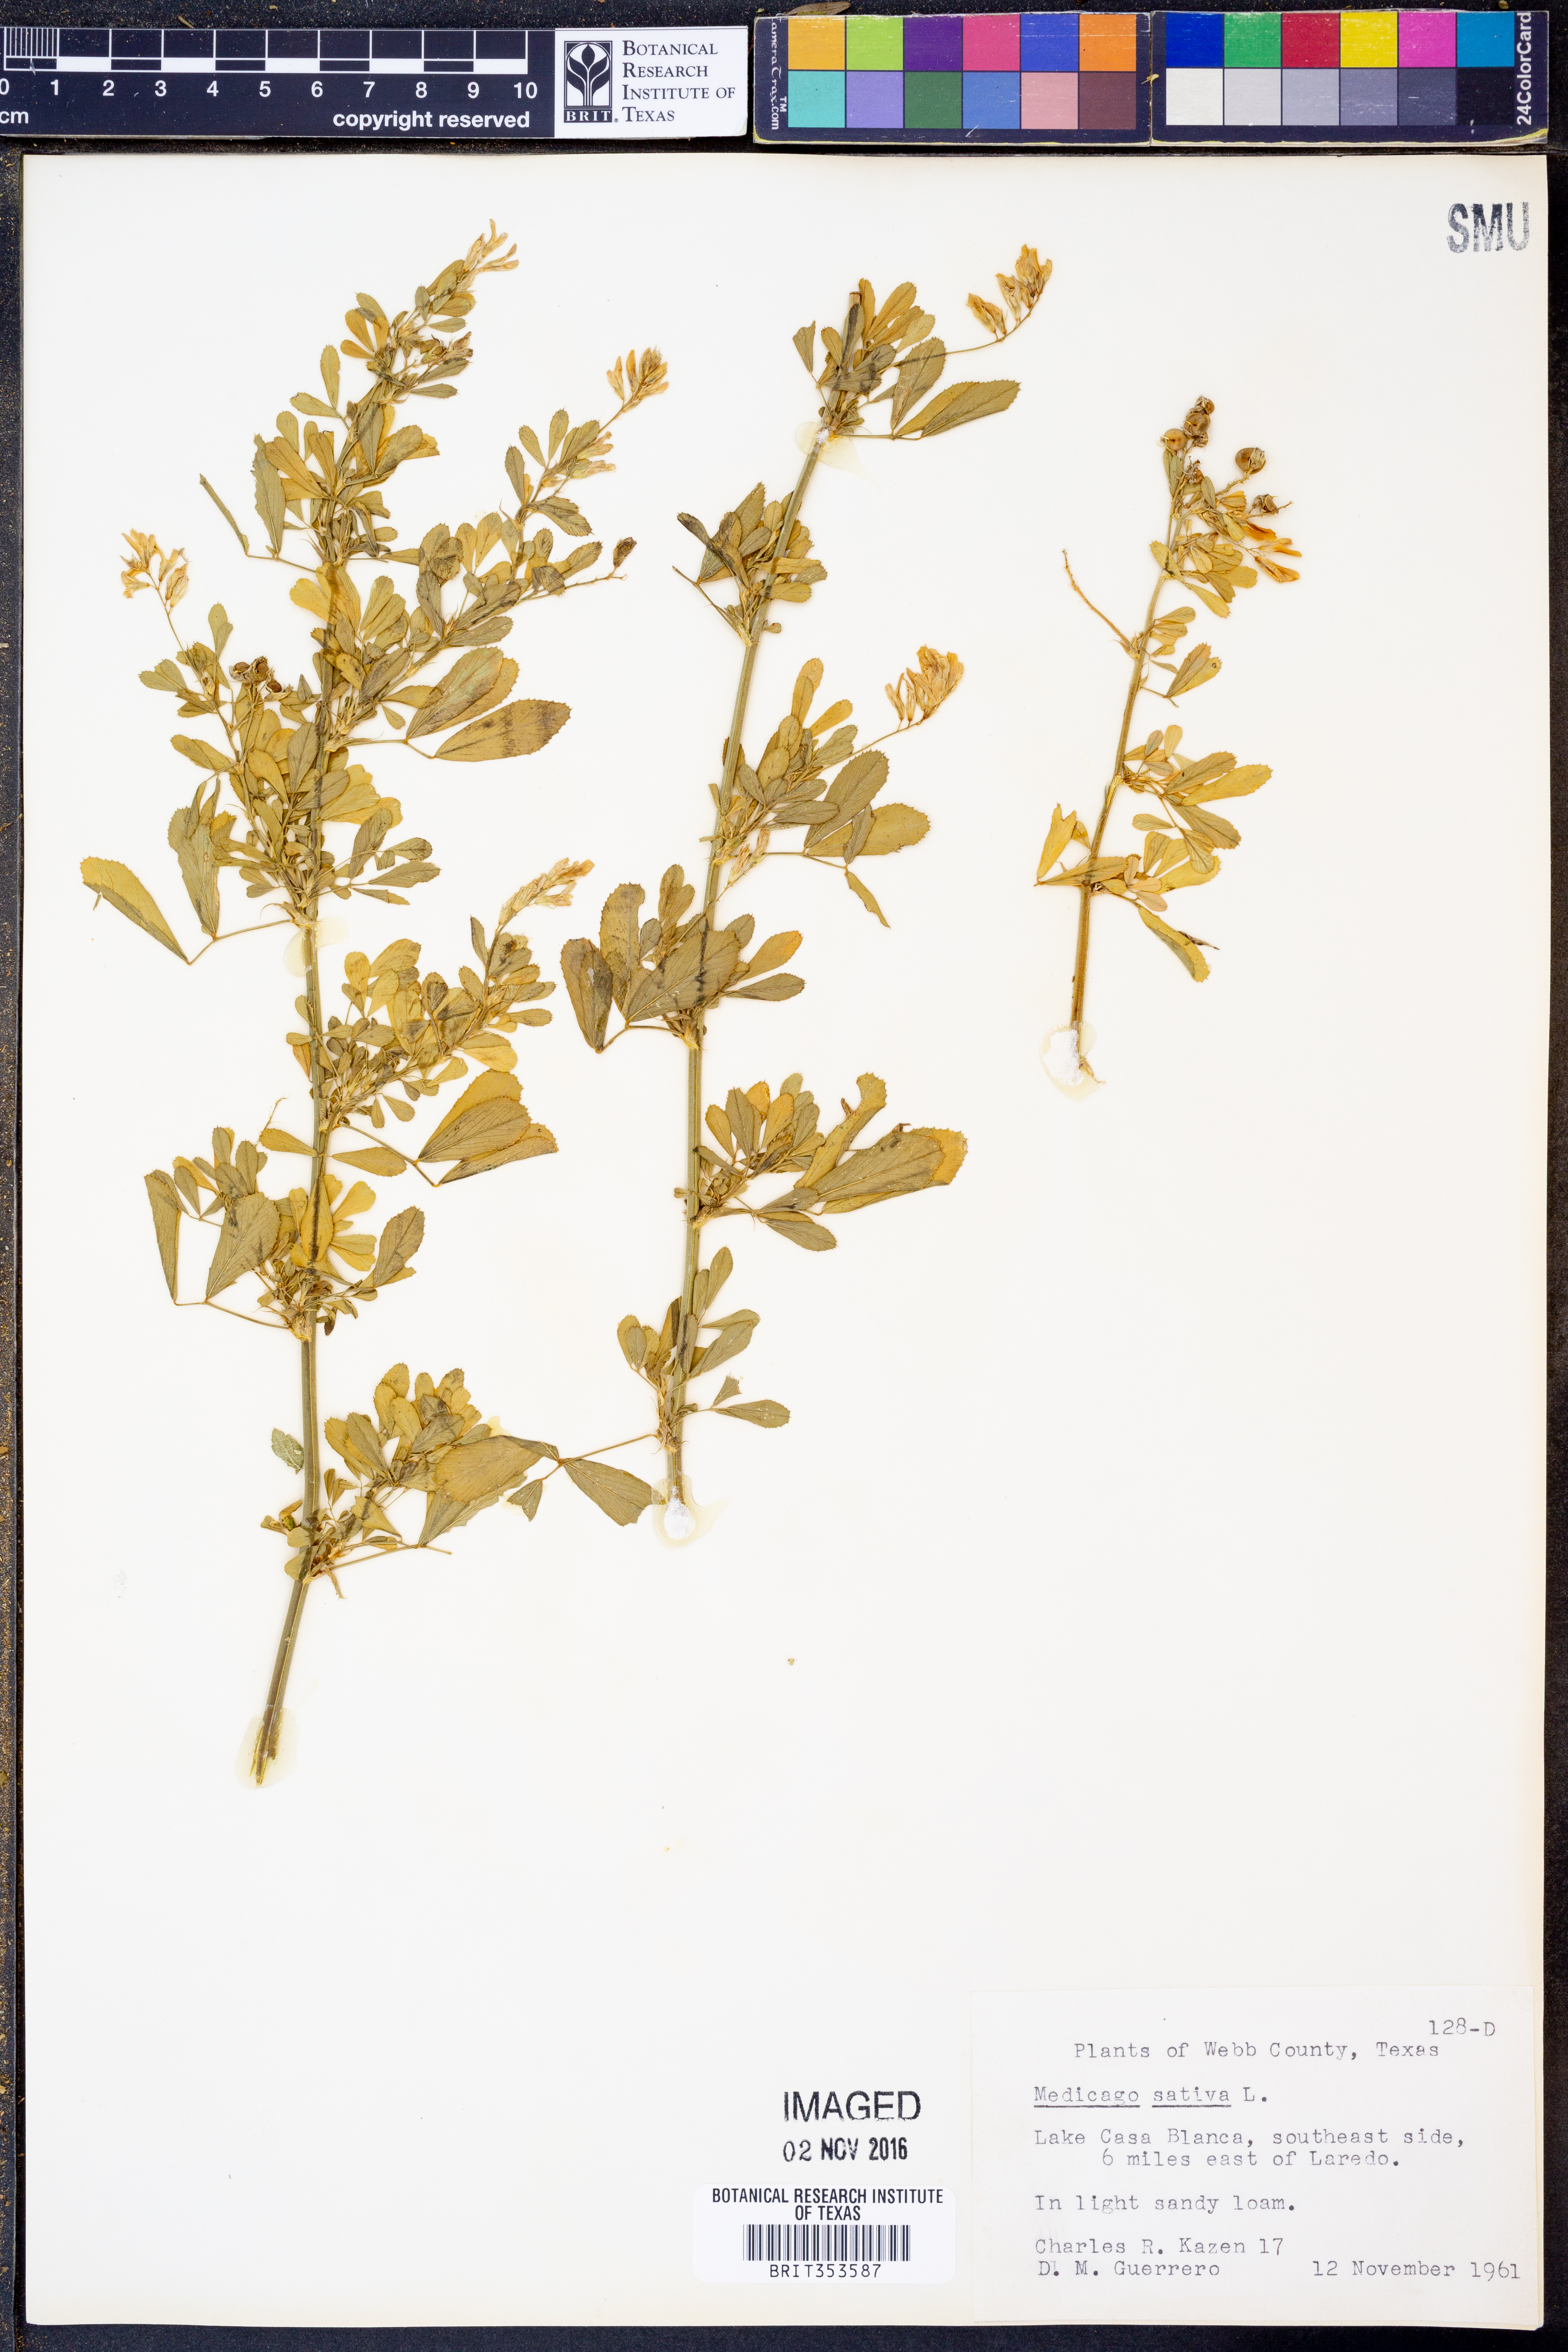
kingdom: Plantae
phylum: Tracheophyta
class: Magnoliopsida
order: Fabales
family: Fabaceae
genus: Medicago
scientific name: Medicago sativa
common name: Alfalfa
